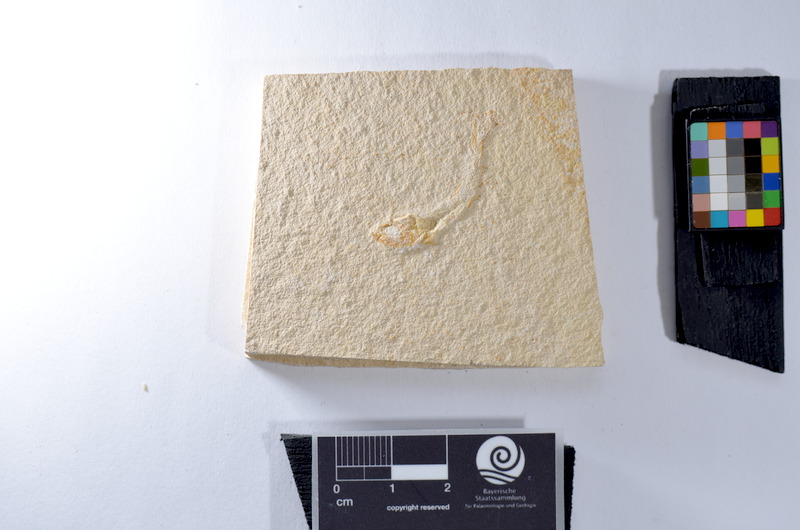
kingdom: Animalia
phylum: Chordata
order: Salmoniformes
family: Orthogonikleithridae
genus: Leptolepides
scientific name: Leptolepides
